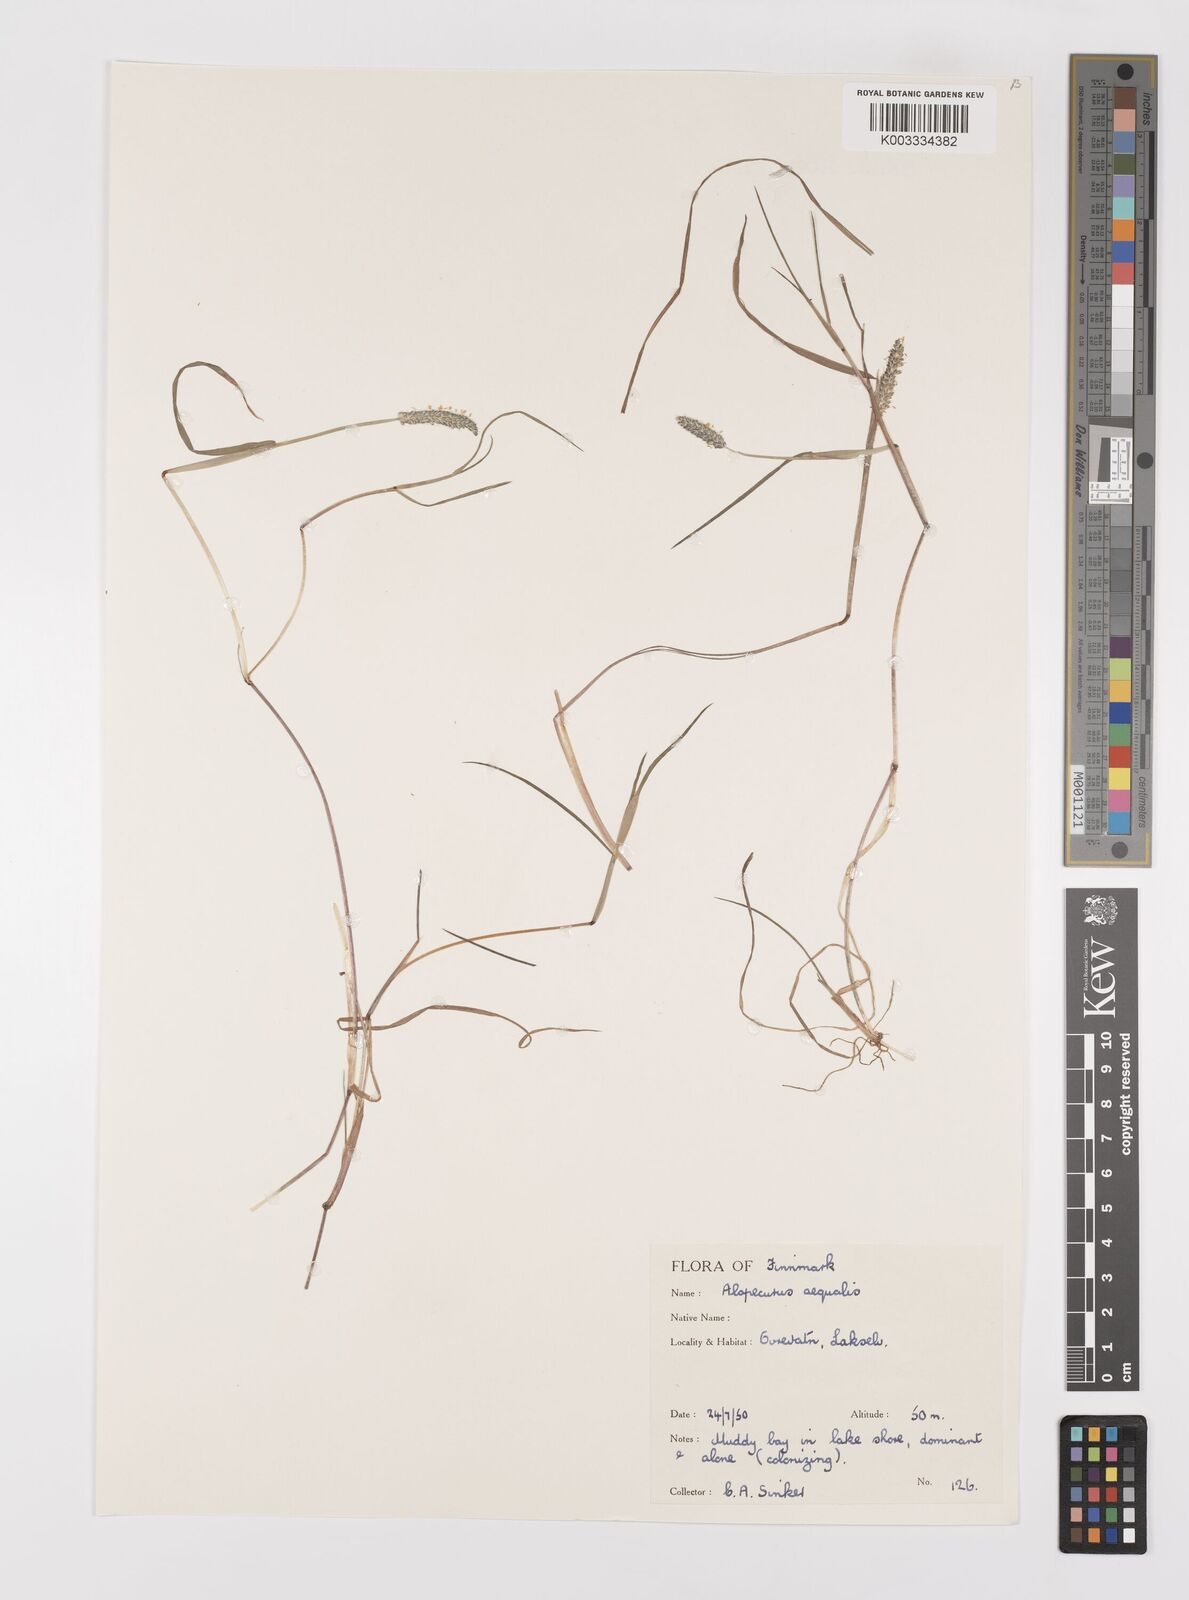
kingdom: Plantae
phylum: Tracheophyta
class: Liliopsida
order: Poales
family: Poaceae
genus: Alopecurus
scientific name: Alopecurus aequalis
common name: Orange foxtail
